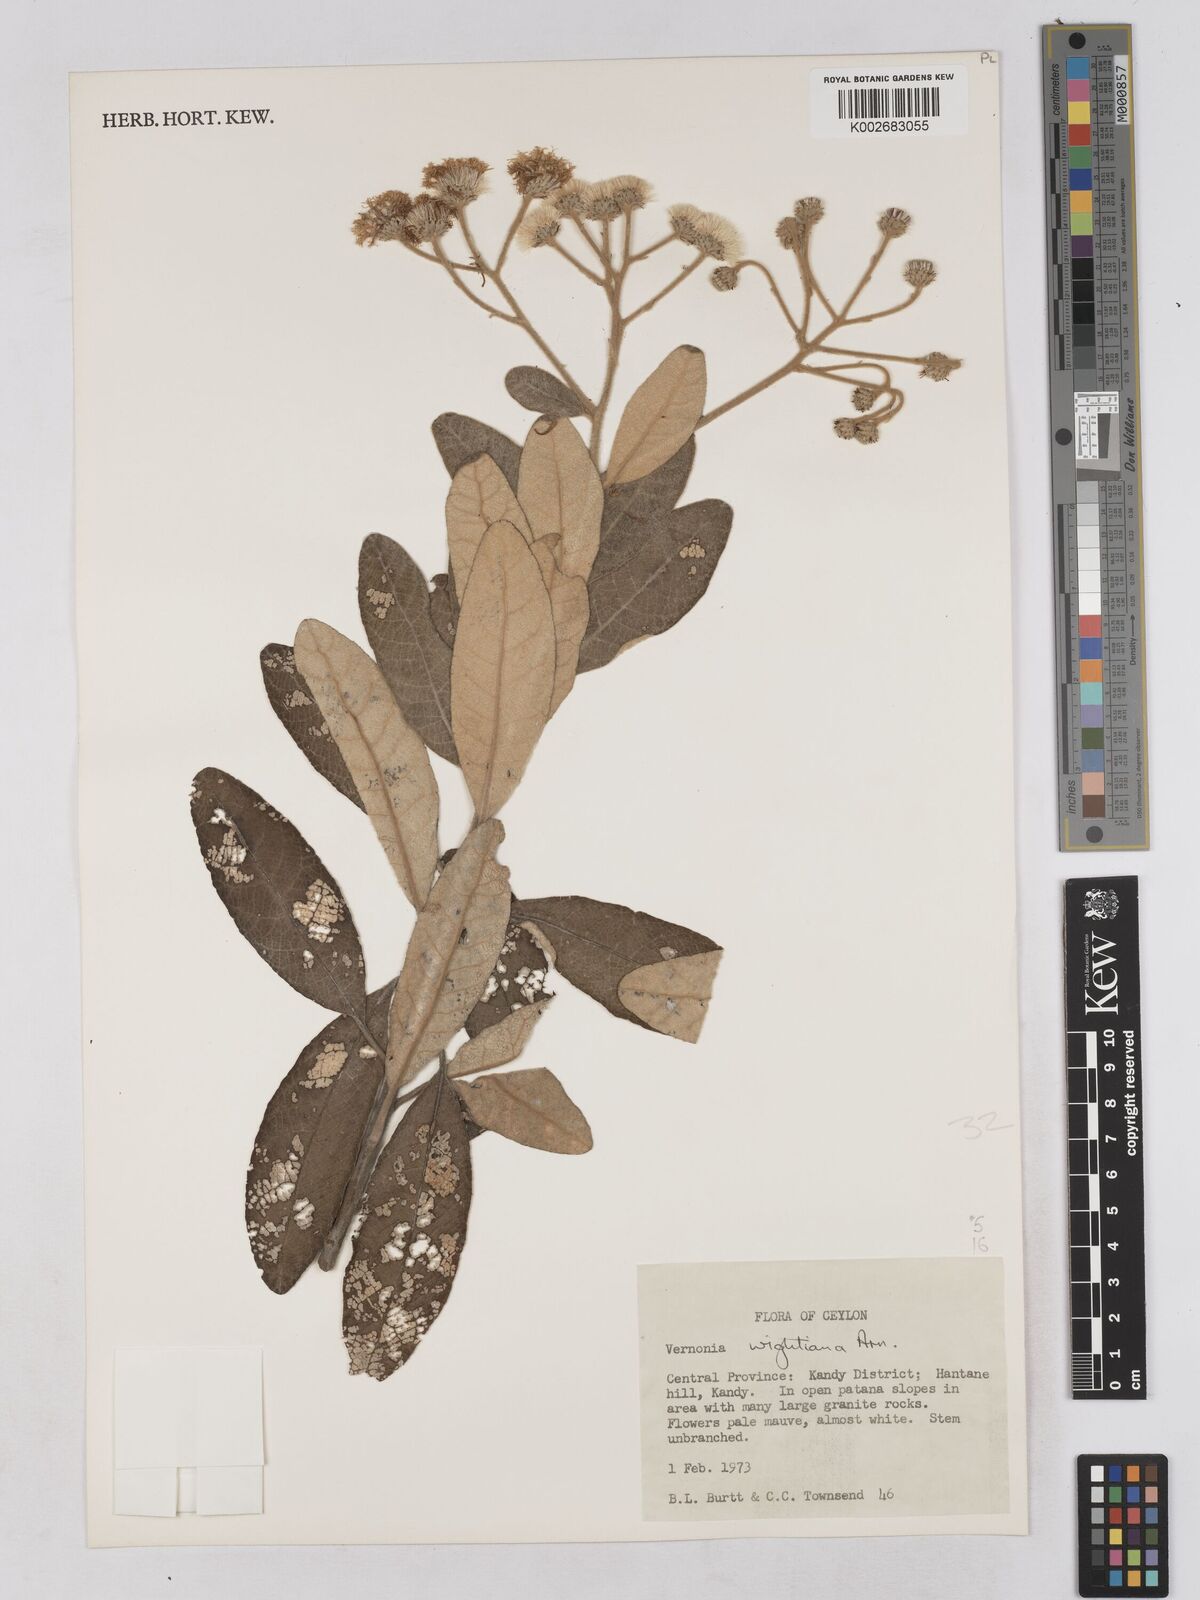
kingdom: Plantae
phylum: Tracheophyta
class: Magnoliopsida
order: Asterales
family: Asteraceae
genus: Uniyala
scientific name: Uniyala wightiana
